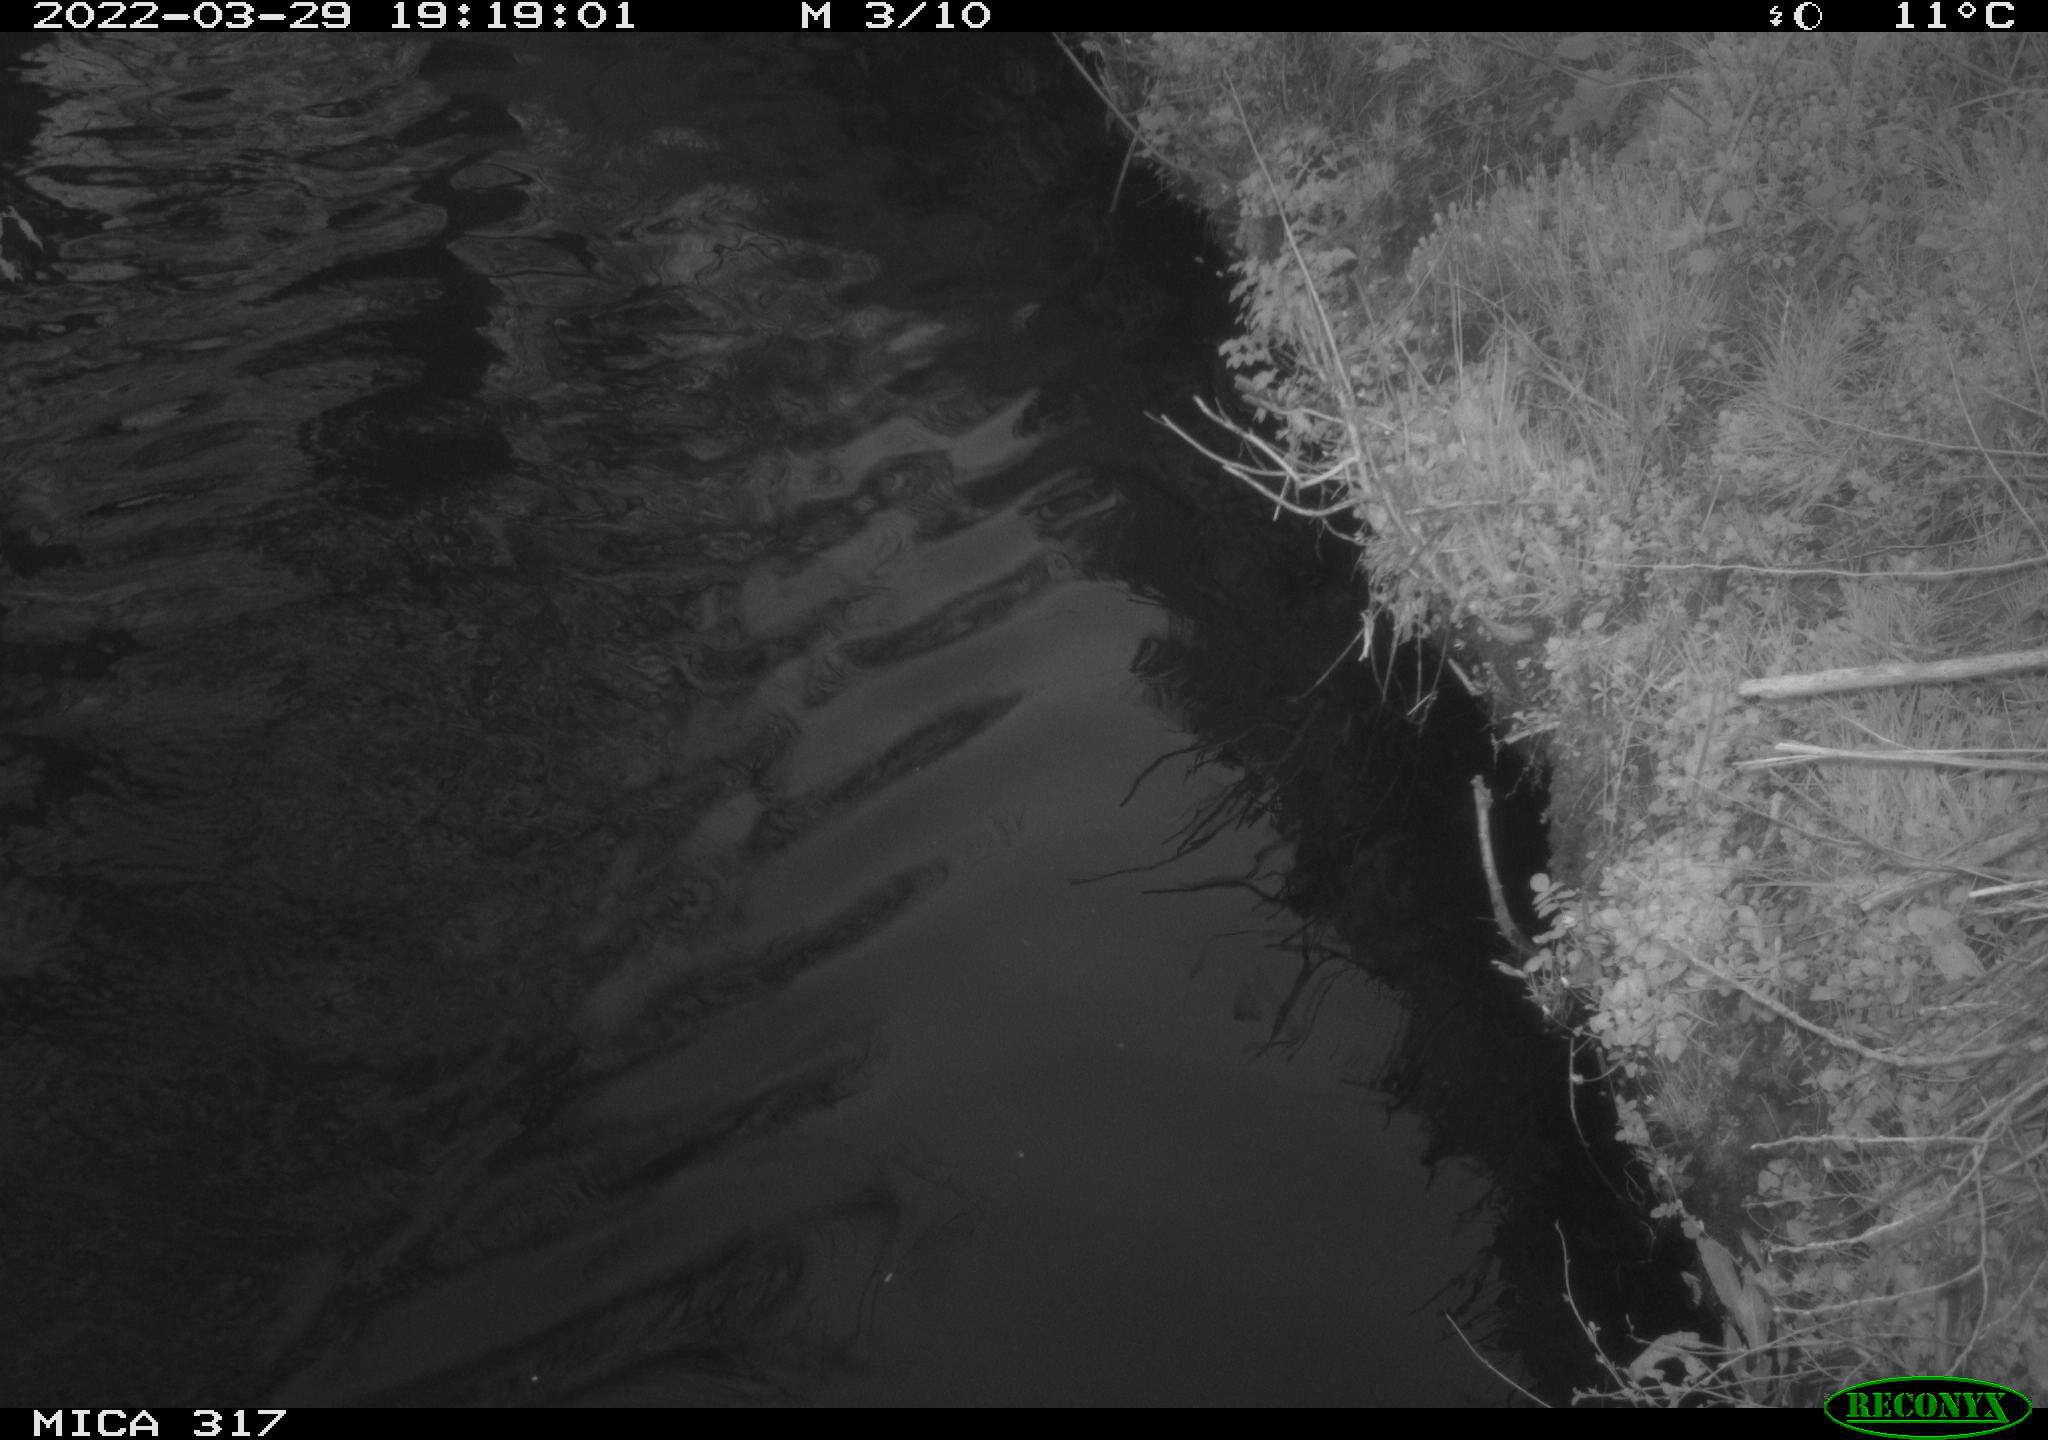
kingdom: Animalia
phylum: Chordata
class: Aves
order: Anseriformes
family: Anatidae
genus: Anas
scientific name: Anas platyrhynchos
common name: Mallard
